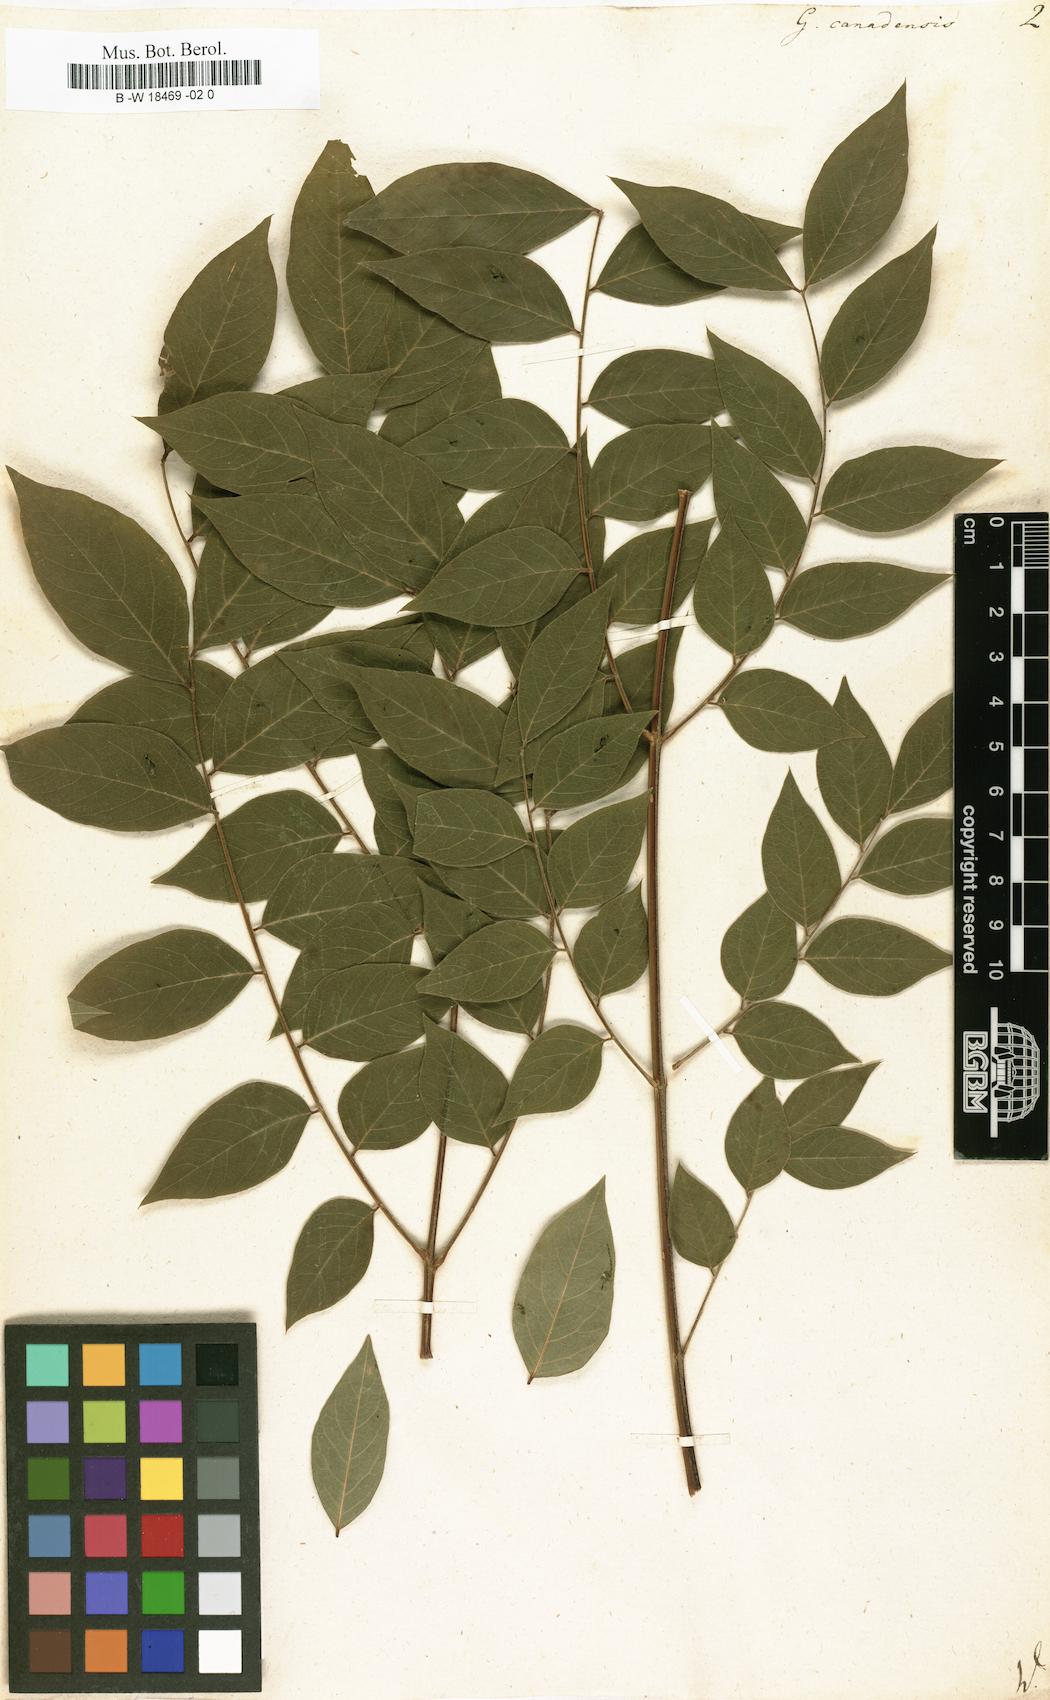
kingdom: Plantae
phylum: Tracheophyta
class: Magnoliopsida
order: Fabales
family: Fabaceae
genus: Gymnocladus
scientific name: Gymnocladus dioicus
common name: Kentucky coffee-tree
